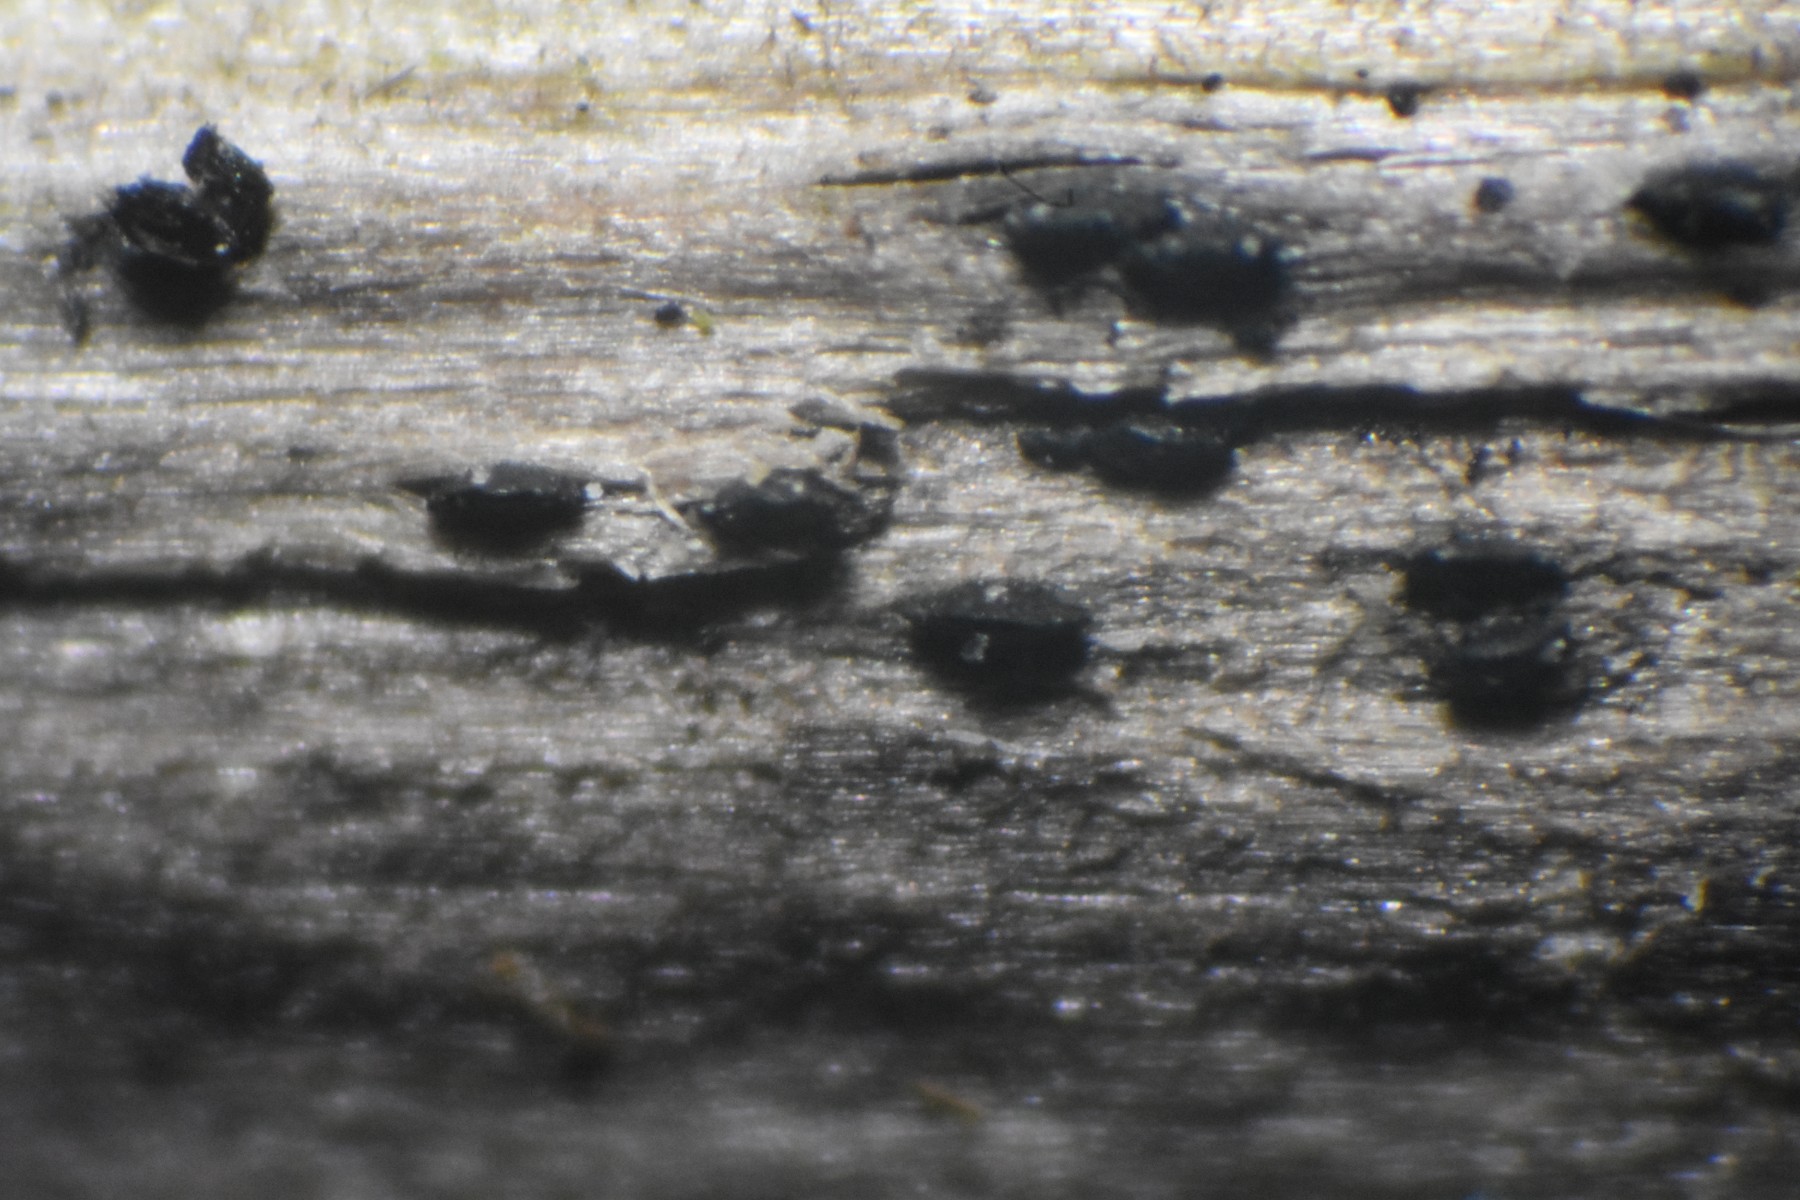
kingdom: Fungi
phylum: Ascomycota
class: Dothideomycetes
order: Pleosporales
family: Lophiostomataceae
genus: Lophiostoma
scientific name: Lophiostoma
